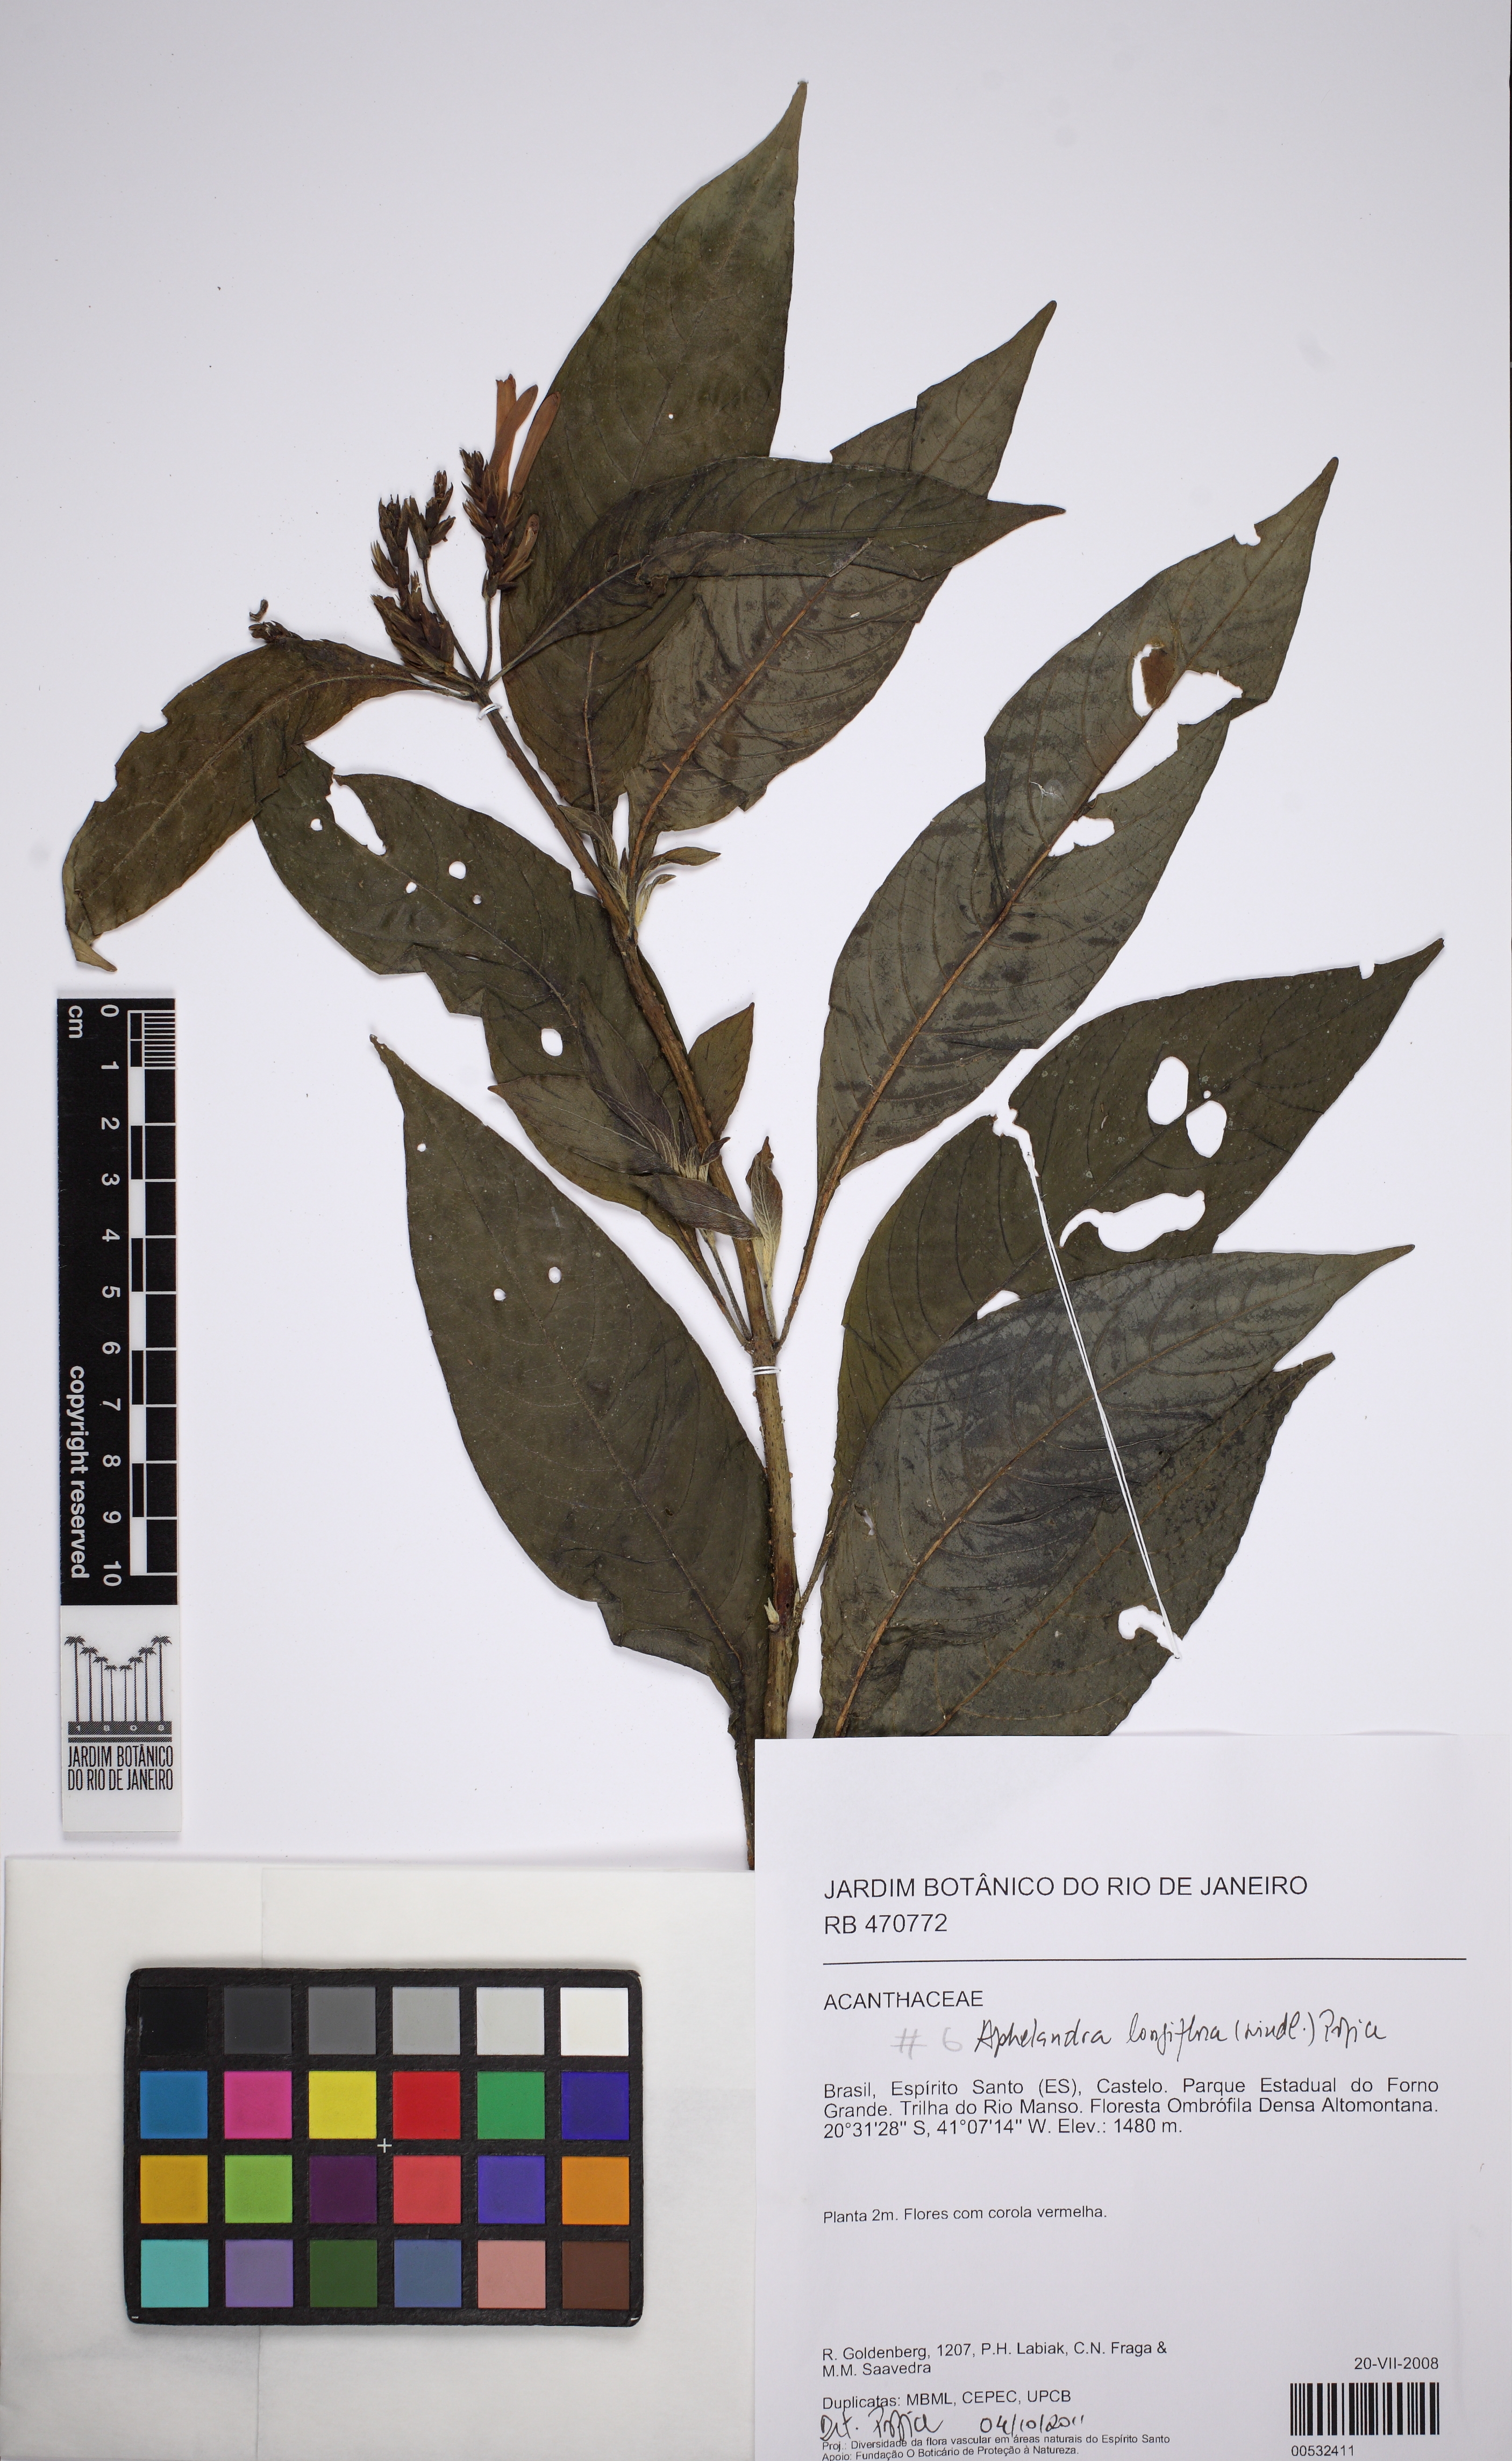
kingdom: Plantae
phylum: Tracheophyta
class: Magnoliopsida
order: Lamiales
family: Acanthaceae
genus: Aphelandra
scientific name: Aphelandra longiflora
